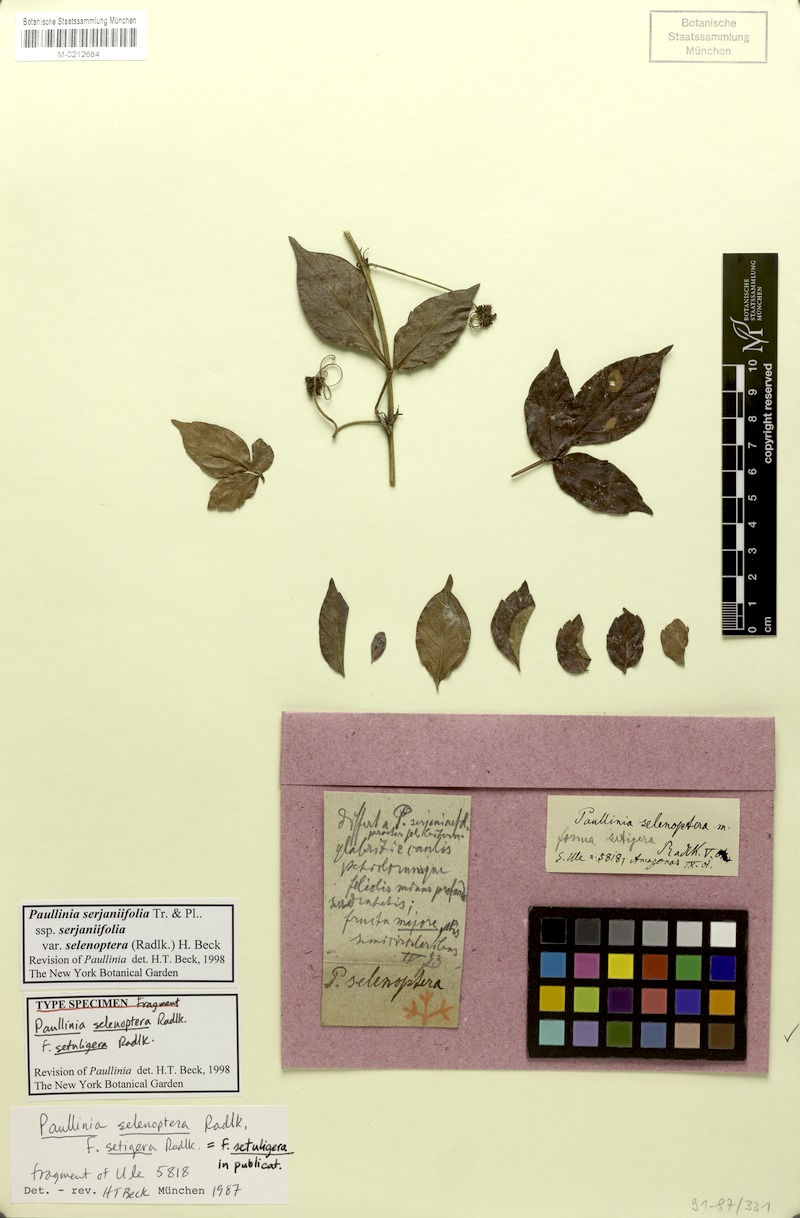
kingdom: Plantae
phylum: Tracheophyta
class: Magnoliopsida
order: Sapindales
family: Sapindaceae
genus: Paullinia
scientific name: Paullinia serjaniifolia
